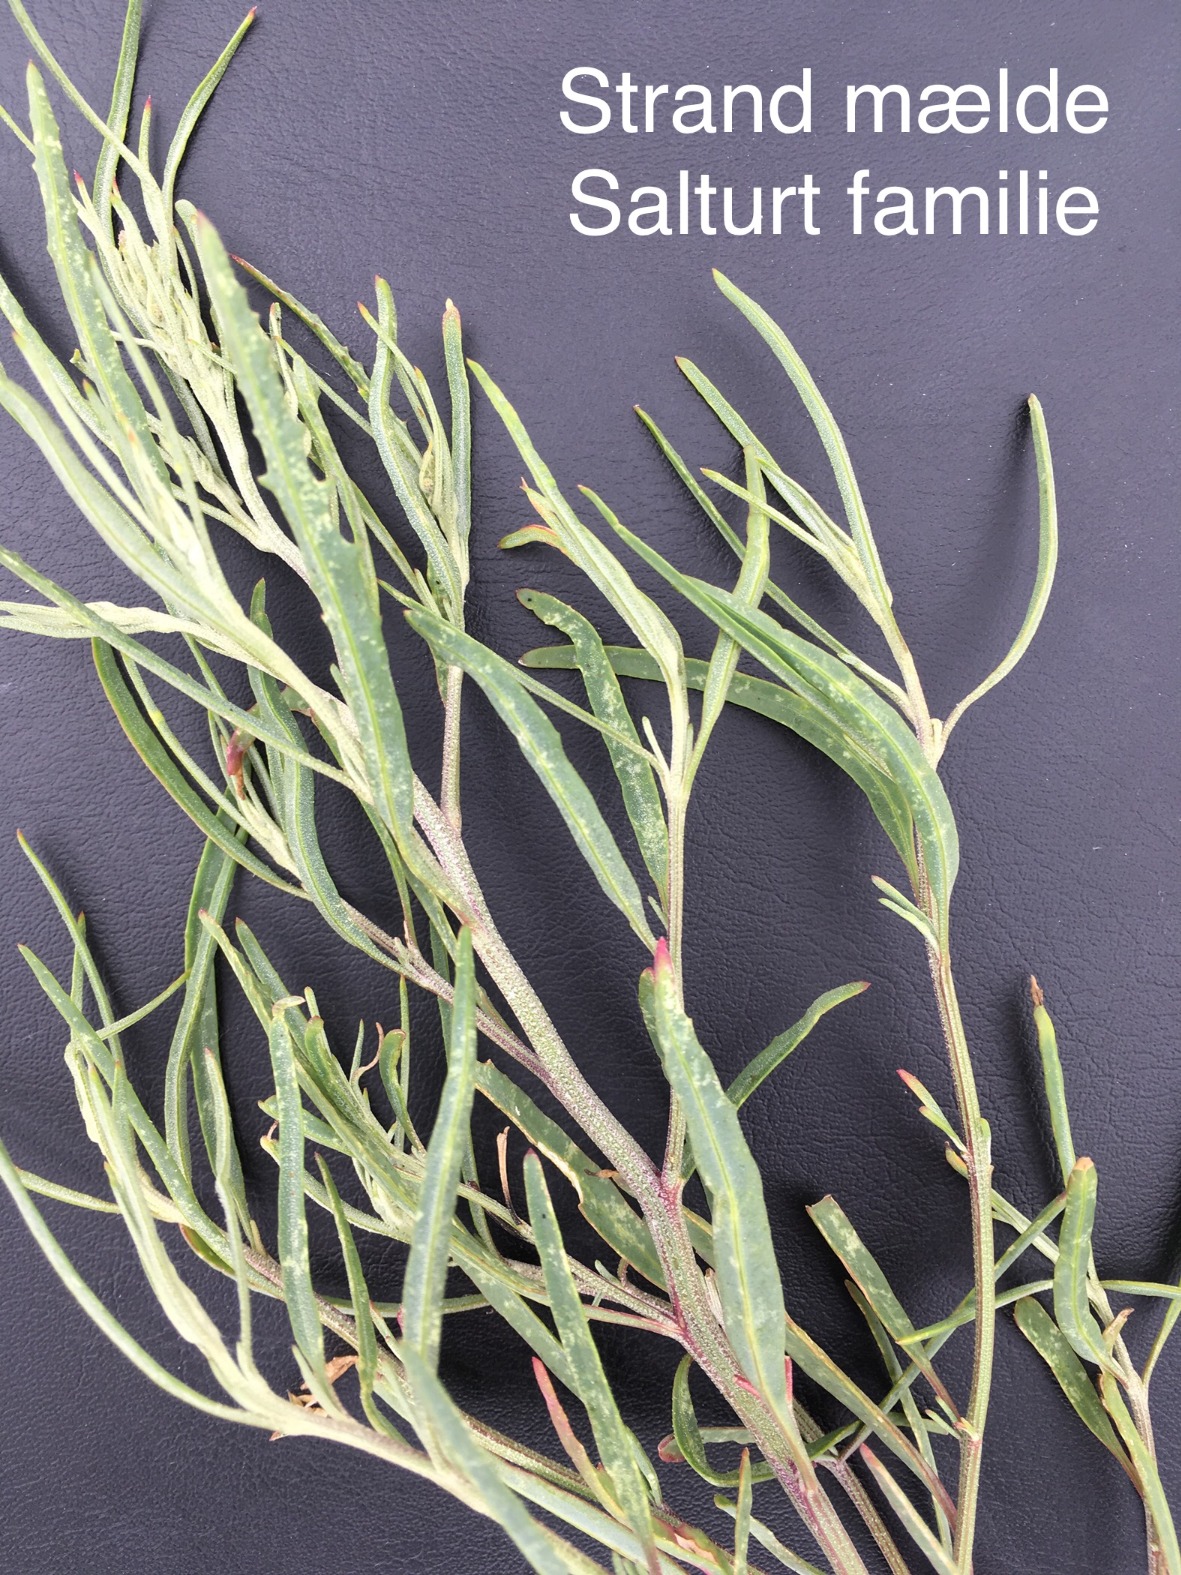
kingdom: Plantae
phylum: Tracheophyta
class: Magnoliopsida
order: Caryophyllales
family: Amaranthaceae
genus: Atriplex
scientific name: Atriplex littoralis
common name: Strand-mælde
